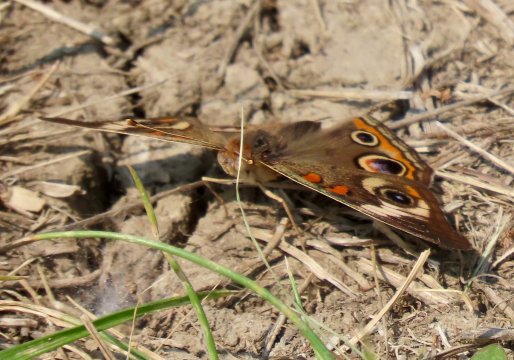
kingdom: Animalia
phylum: Arthropoda
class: Insecta
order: Lepidoptera
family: Nymphalidae
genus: Junonia
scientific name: Junonia coenia
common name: Common Buckeye
